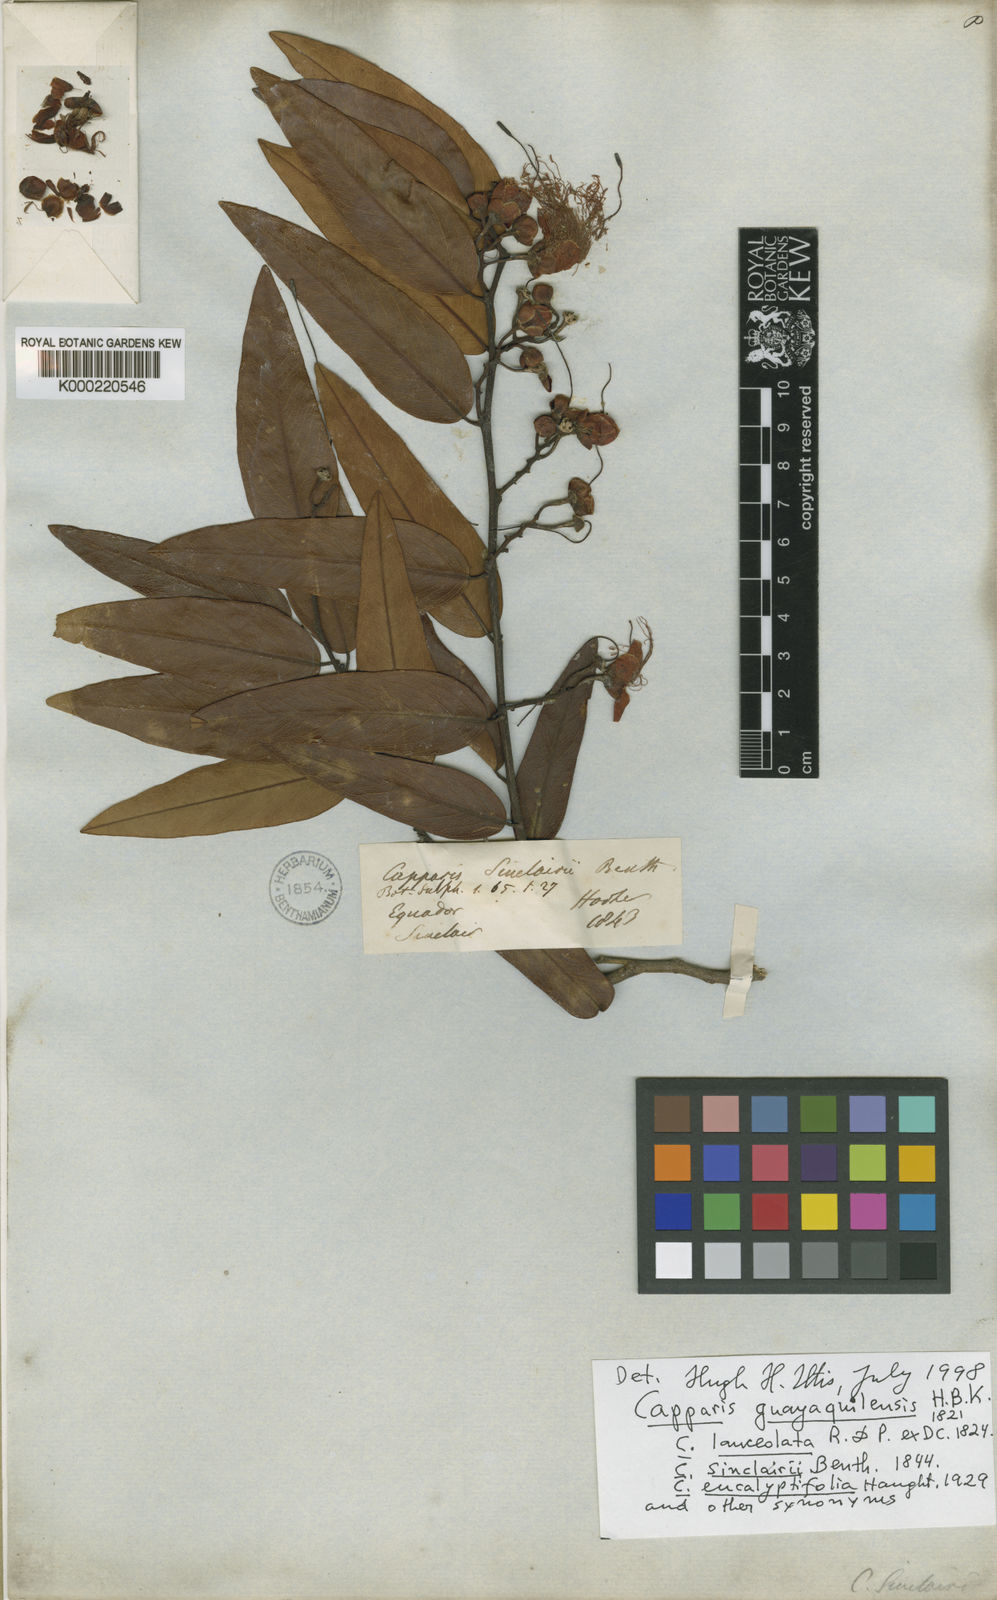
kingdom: Plantae
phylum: Tracheophyta
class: Magnoliopsida
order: Brassicales
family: Capparaceae
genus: Cynophalla
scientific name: Cynophalla guayaquilensis
